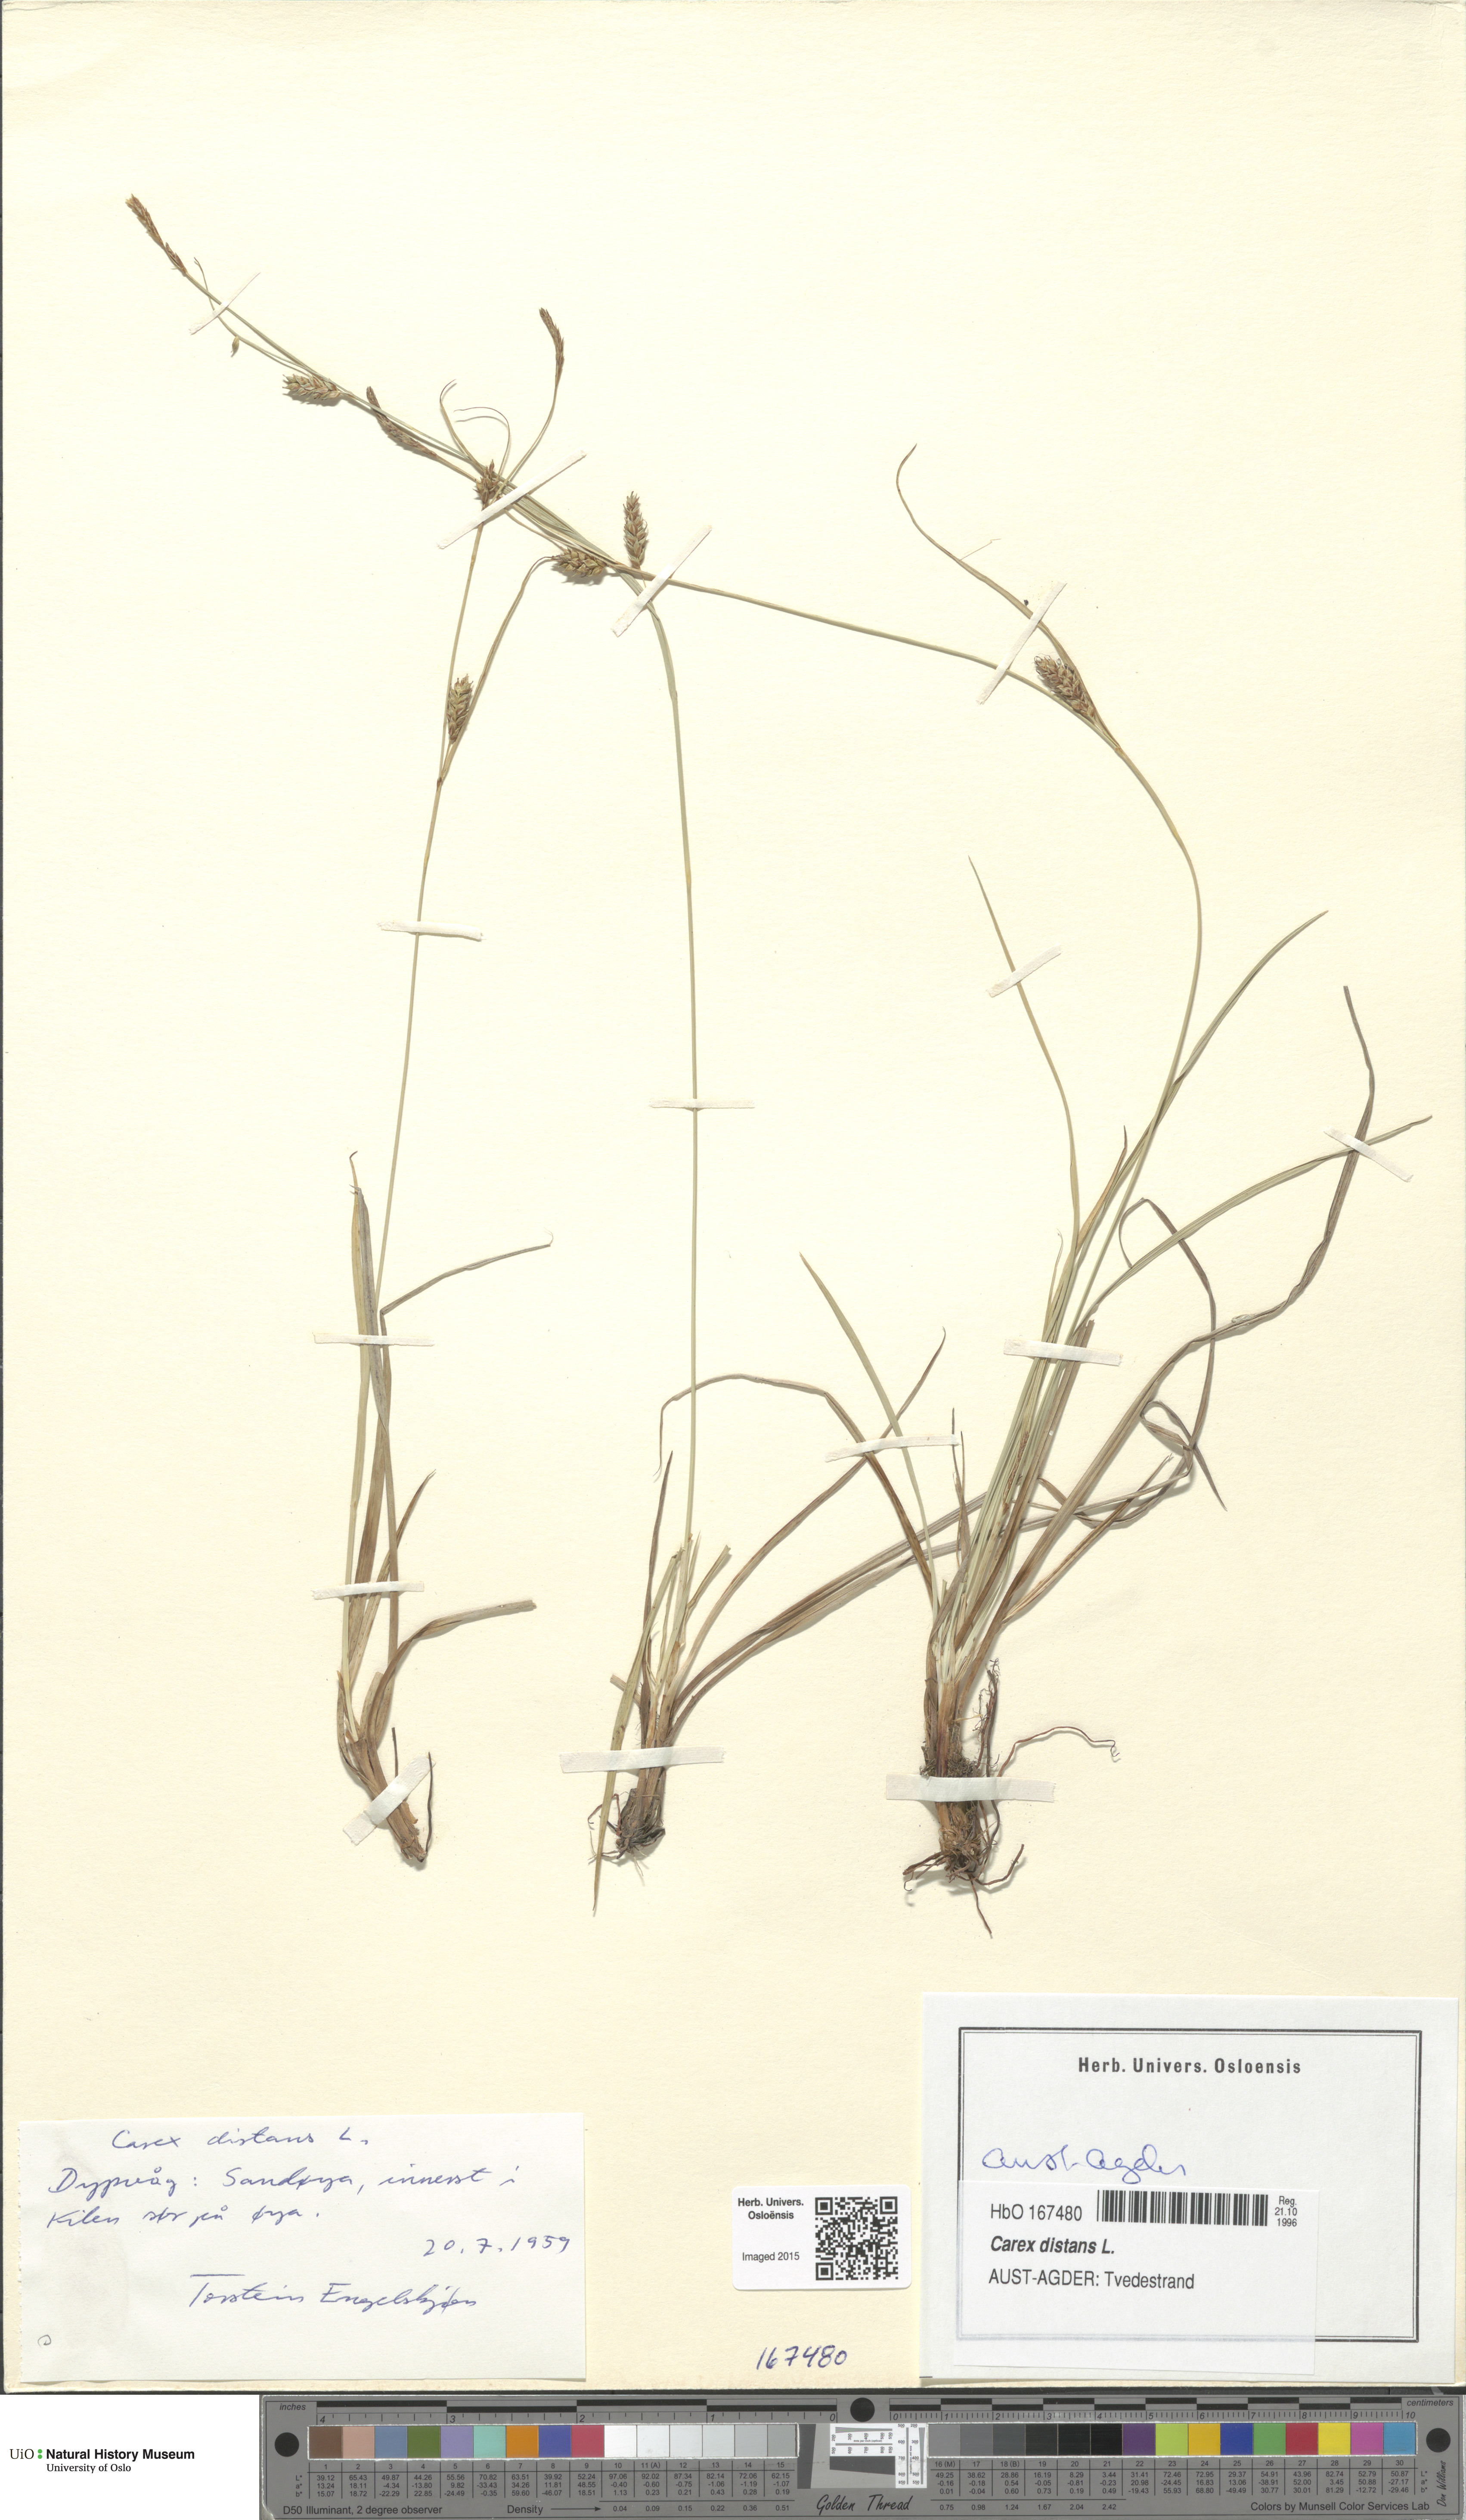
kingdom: Plantae
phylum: Tracheophyta
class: Liliopsida
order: Poales
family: Cyperaceae
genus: Carex
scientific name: Carex distans
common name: Distant sedge
